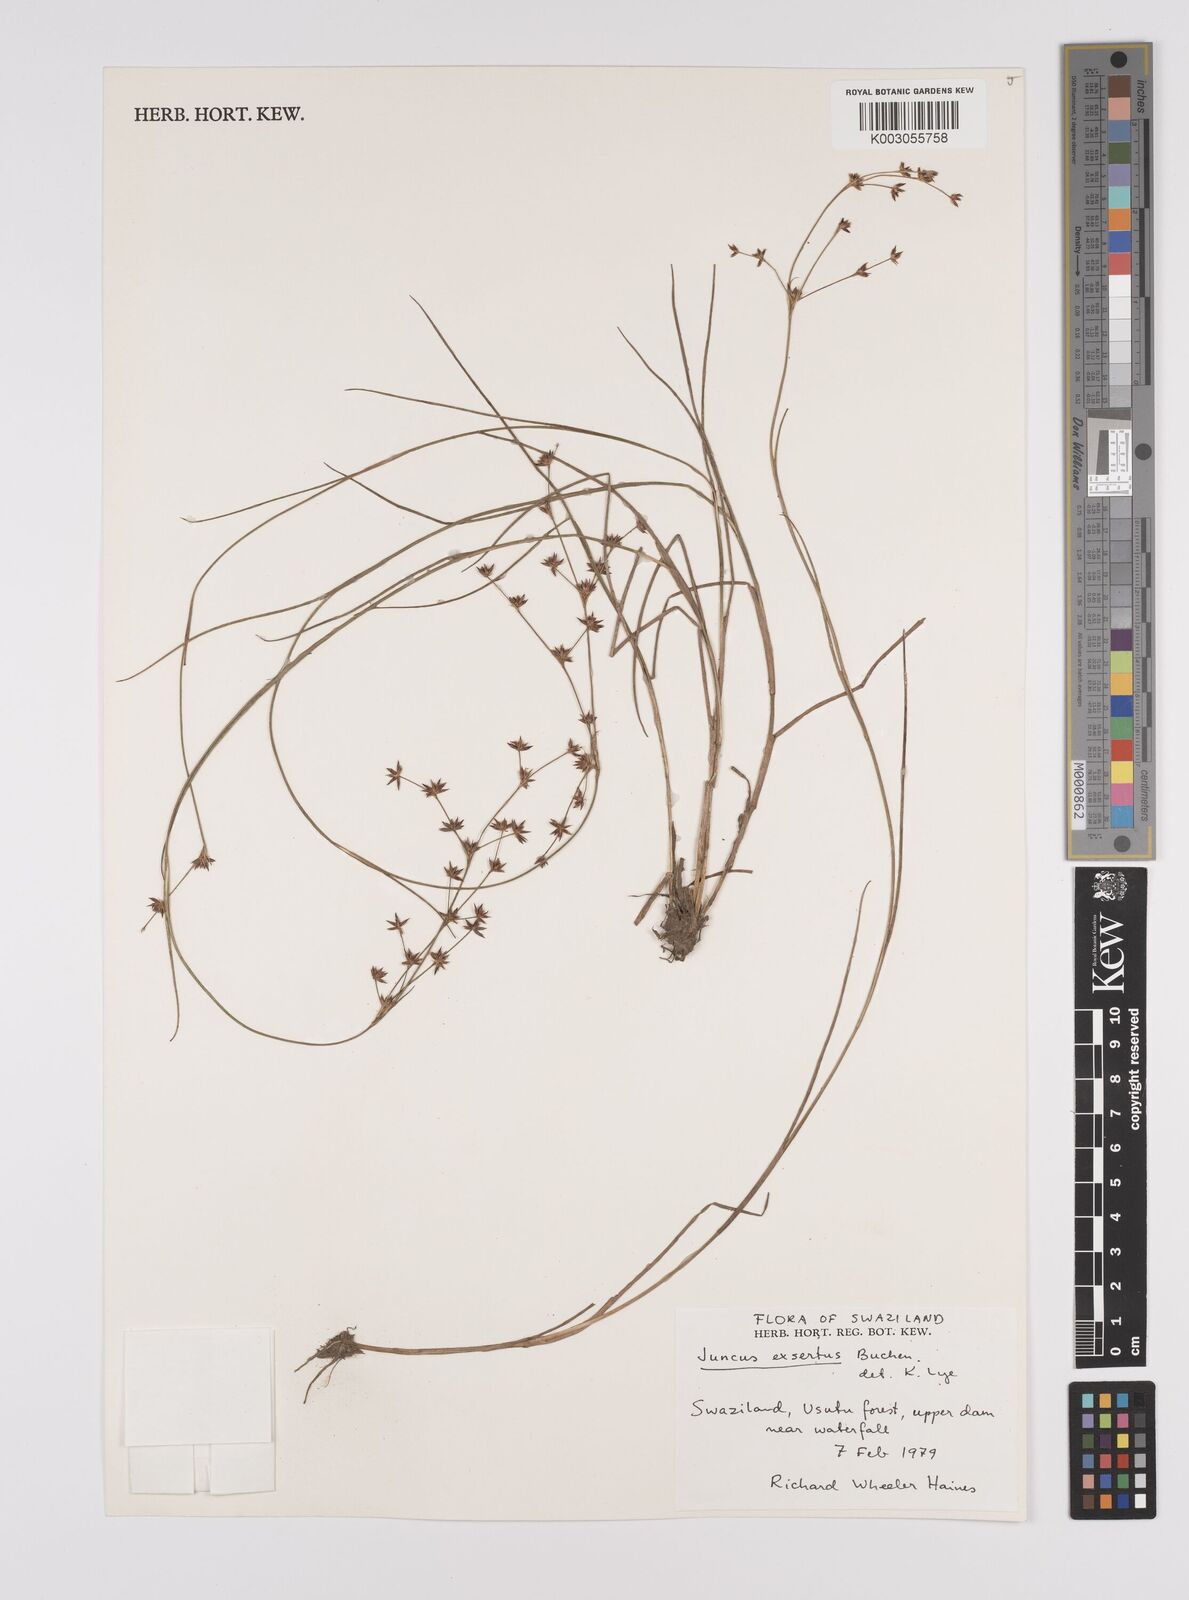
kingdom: Plantae
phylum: Tracheophyta
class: Liliopsida
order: Poales
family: Juncaceae
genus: Juncus
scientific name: Juncus exsertus
